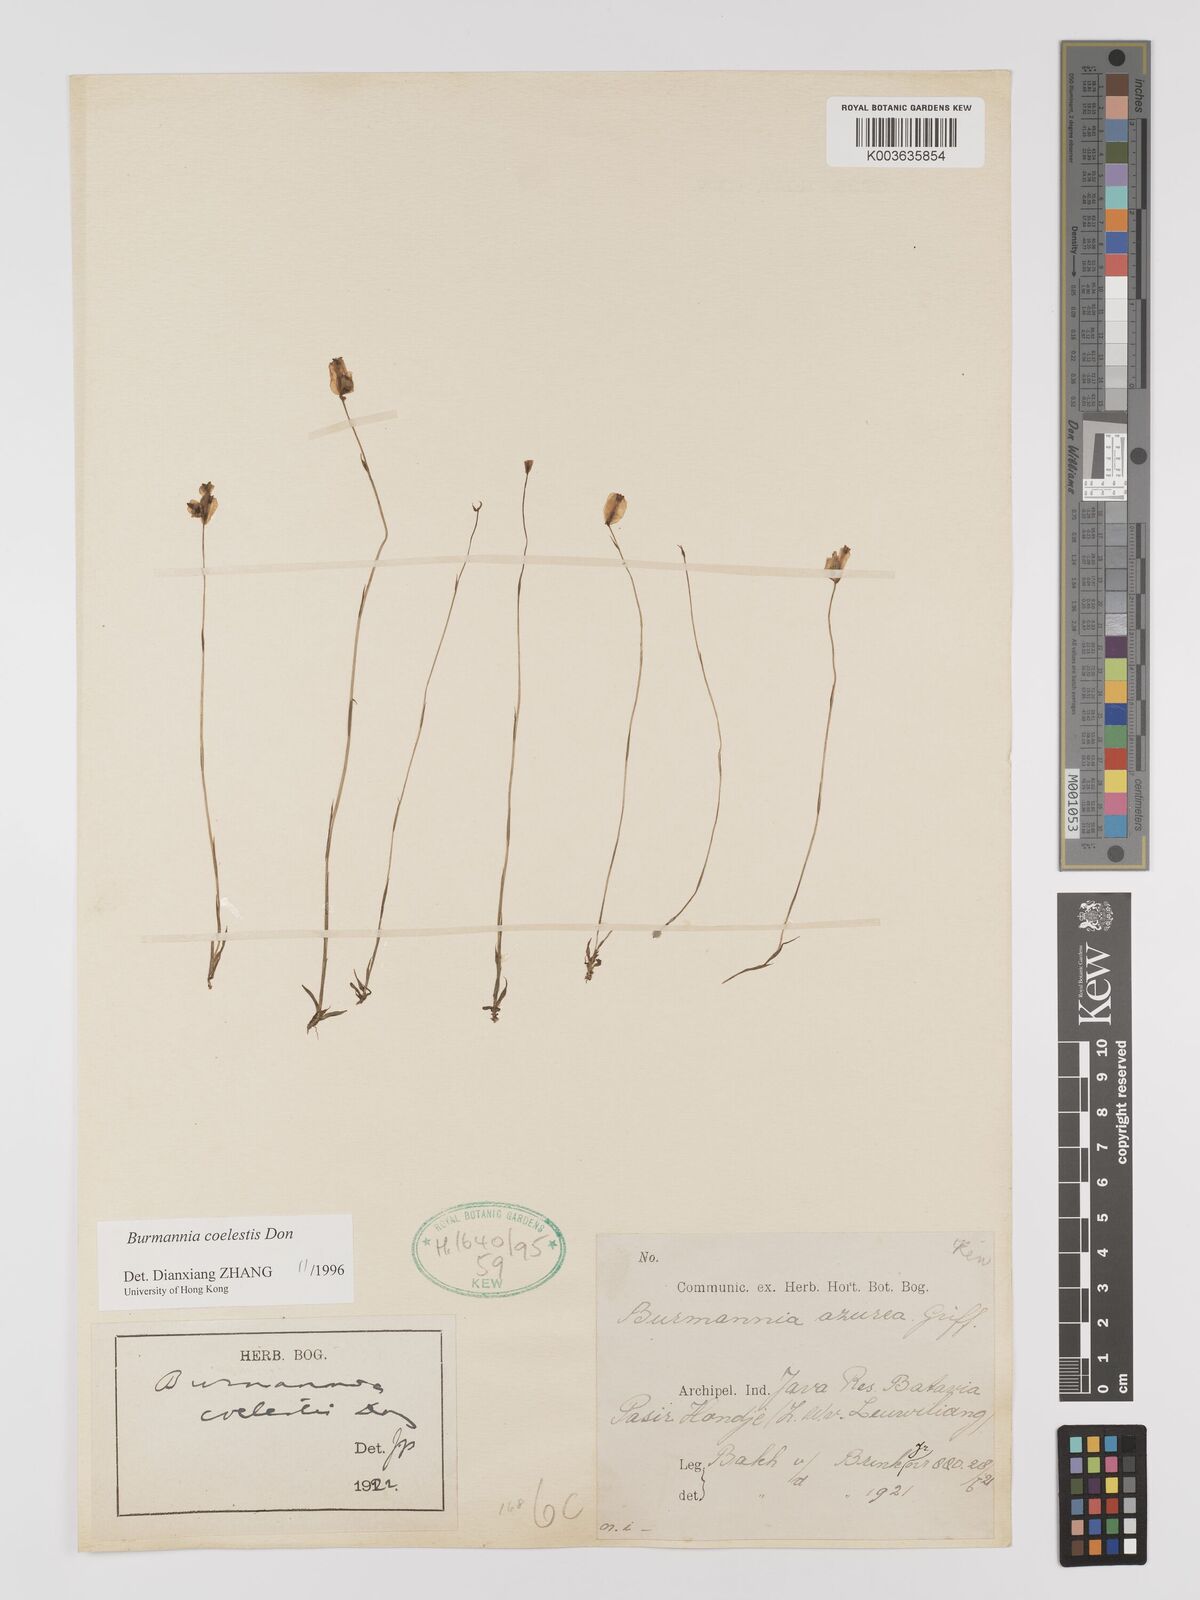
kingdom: Plantae
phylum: Tracheophyta
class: Liliopsida
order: Dioscoreales
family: Burmanniaceae
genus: Burmannia
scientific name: Burmannia coelestis
